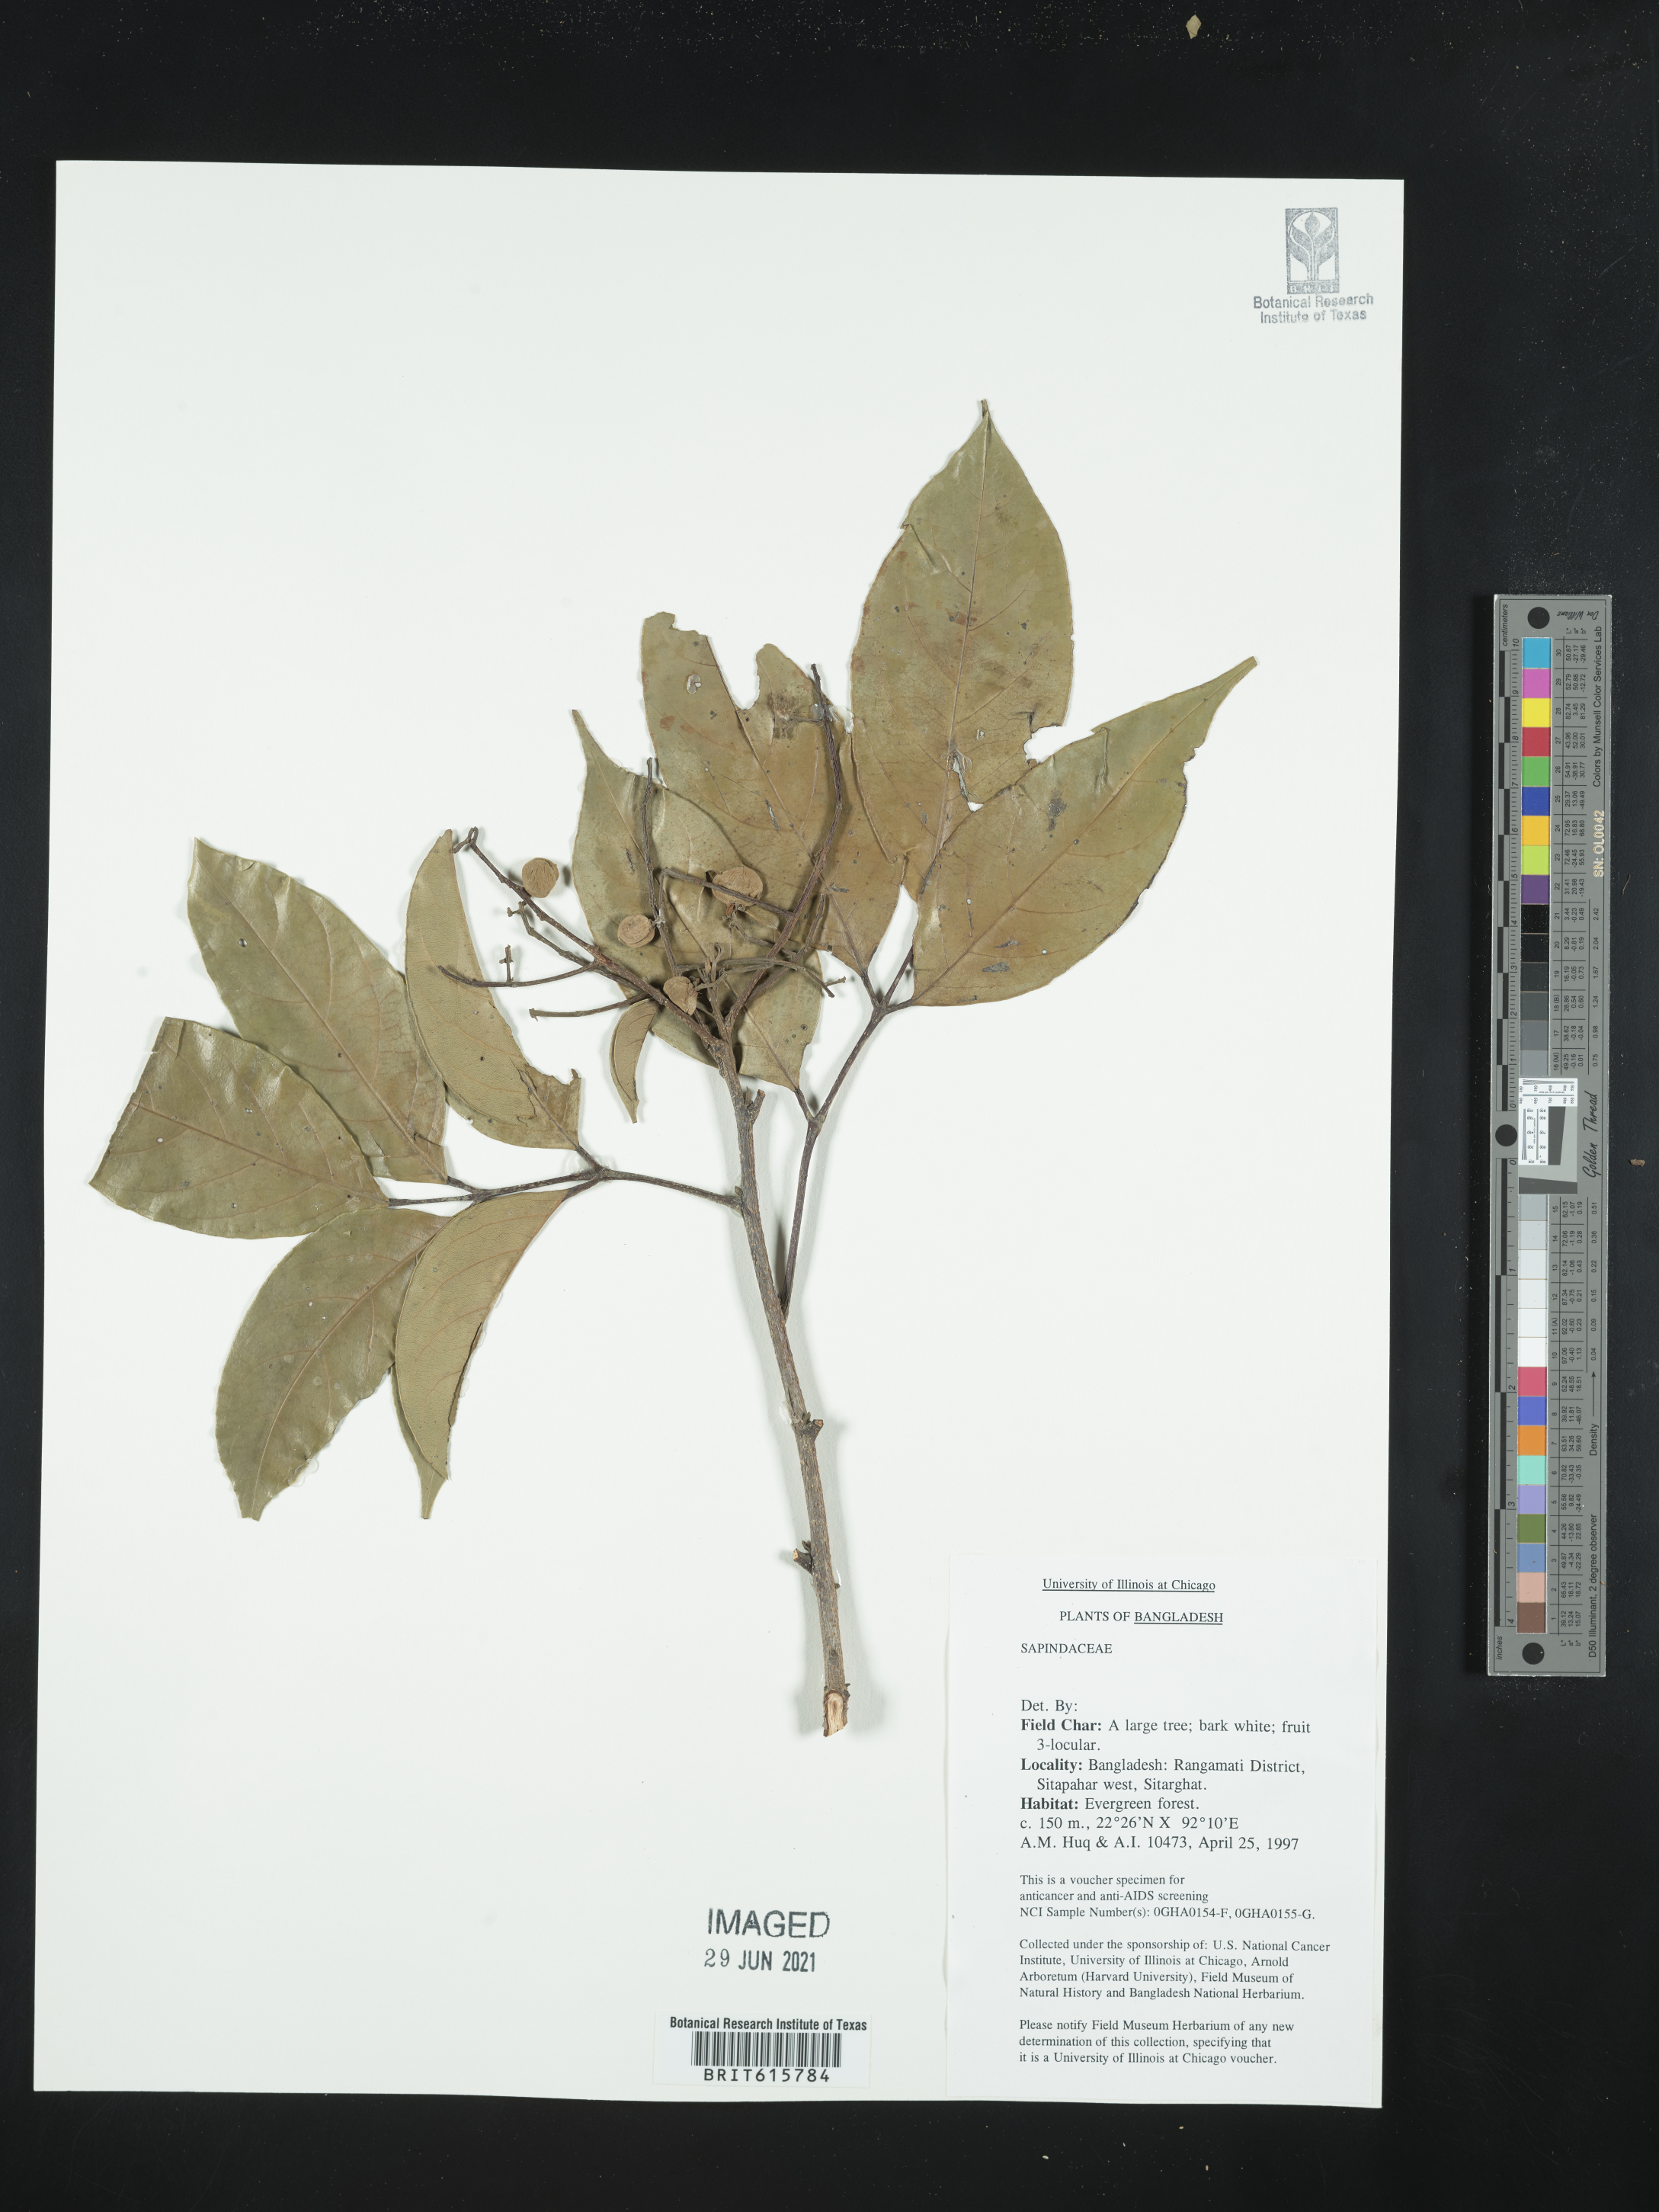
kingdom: Plantae
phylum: Tracheophyta
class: Magnoliopsida
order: Sapindales
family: Sapindaceae
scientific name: Sapindaceae
